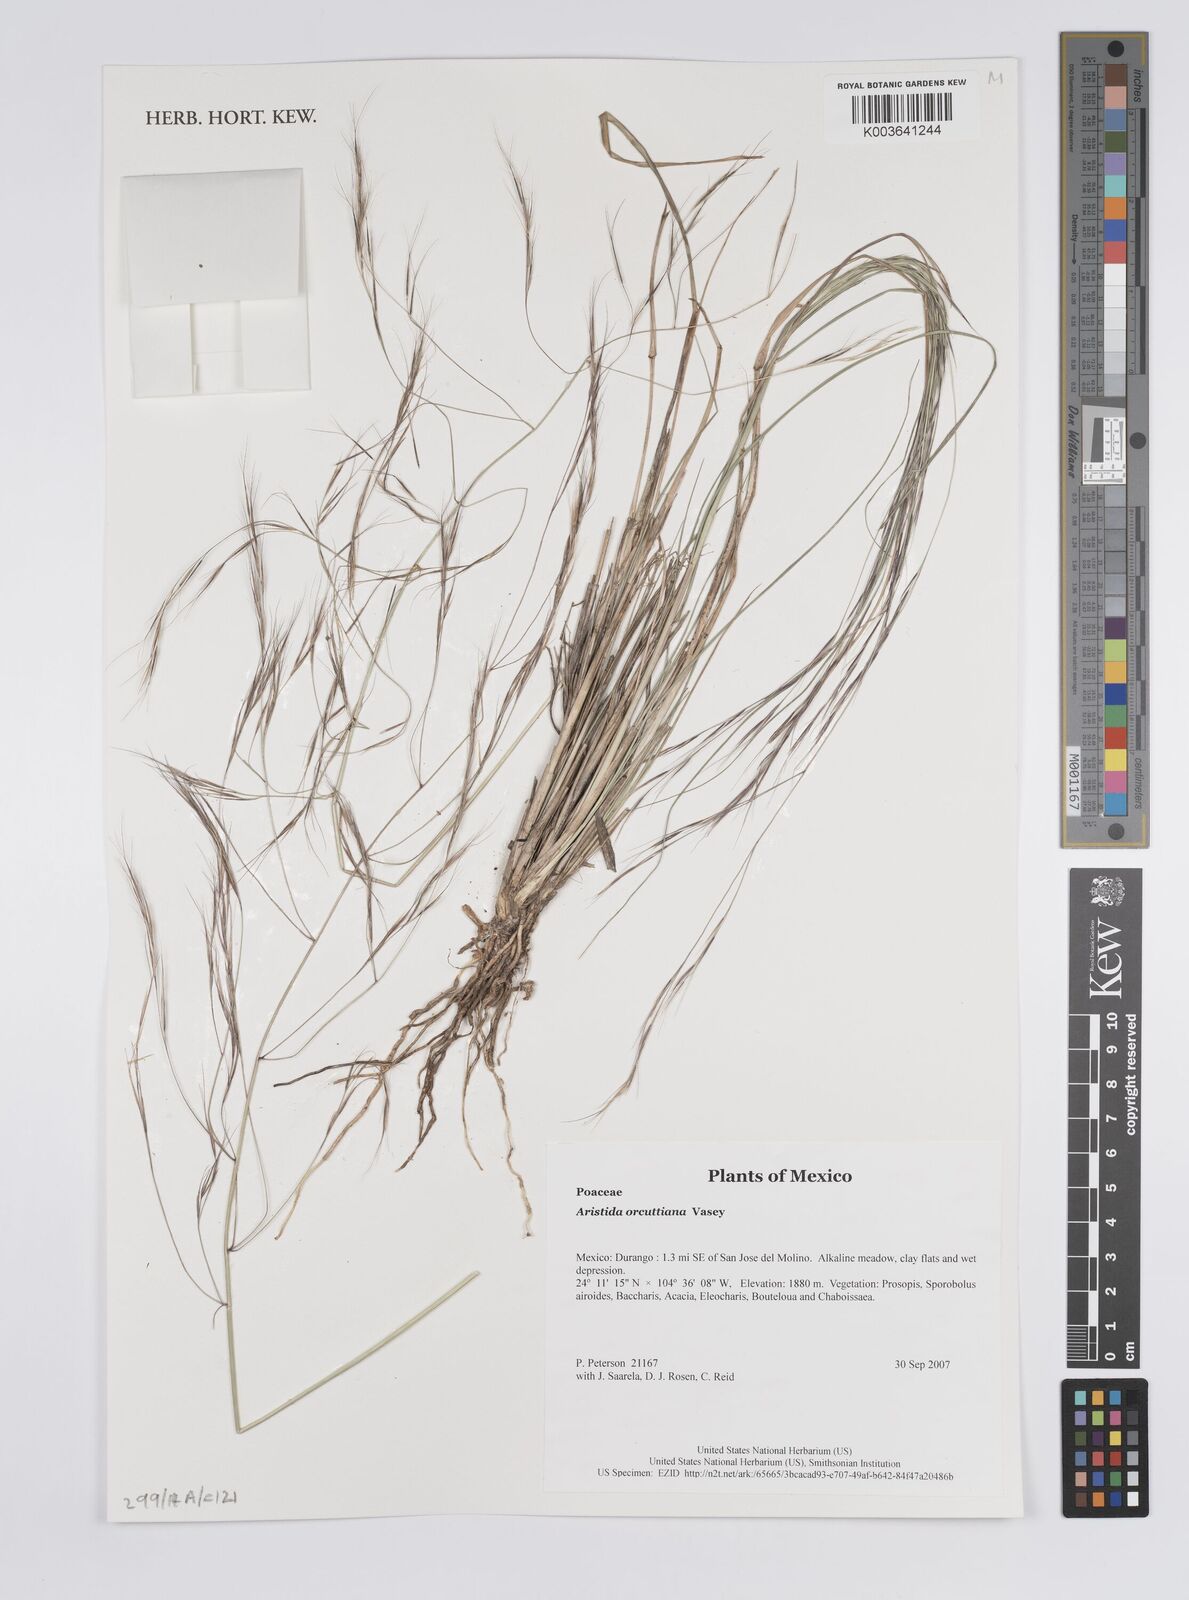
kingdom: Plantae
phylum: Tracheophyta
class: Liliopsida
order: Poales
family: Poaceae
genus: Aristida
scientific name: Aristida schiedeana
